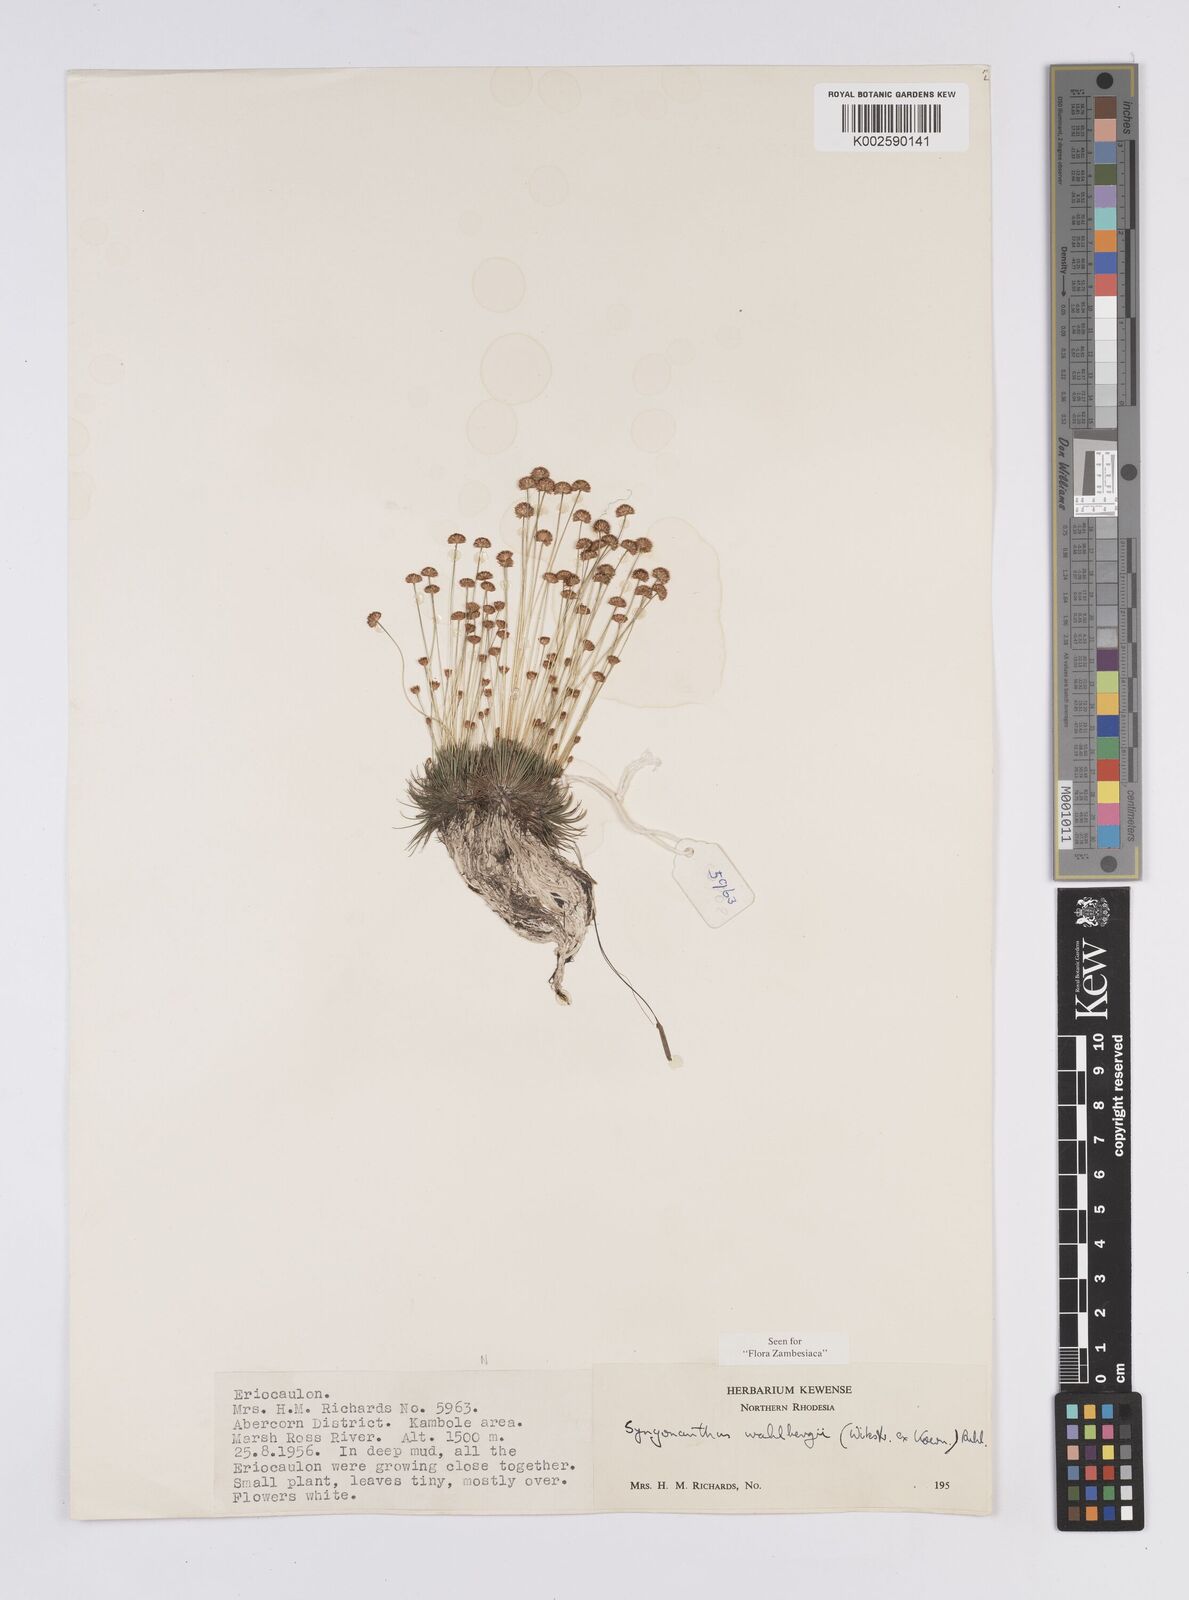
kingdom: Plantae
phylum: Tracheophyta
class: Liliopsida
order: Poales
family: Eriocaulaceae
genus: Syngonanthus
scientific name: Syngonanthus wahlbergii
